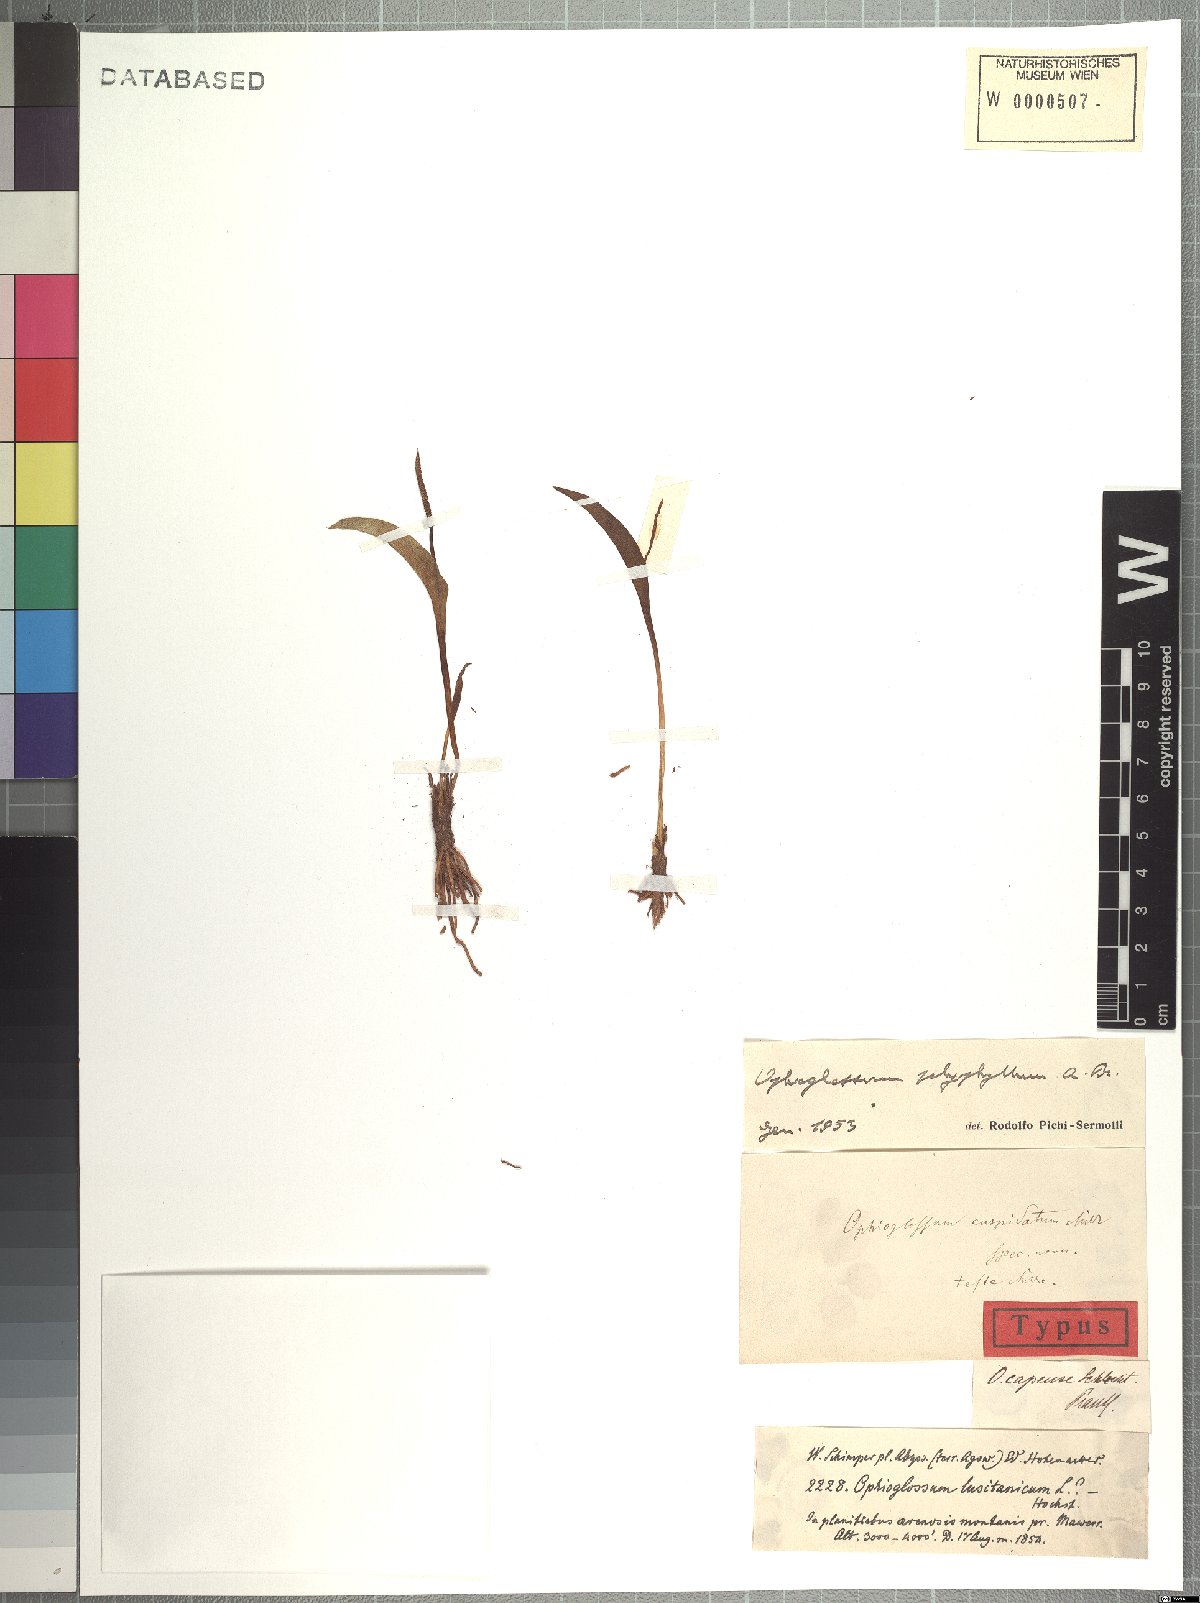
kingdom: Plantae
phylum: Tracheophyta
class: Polypodiopsida
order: Ophioglossales
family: Ophioglossaceae
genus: Ophioglossum
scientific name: Ophioglossum polyphyllum
